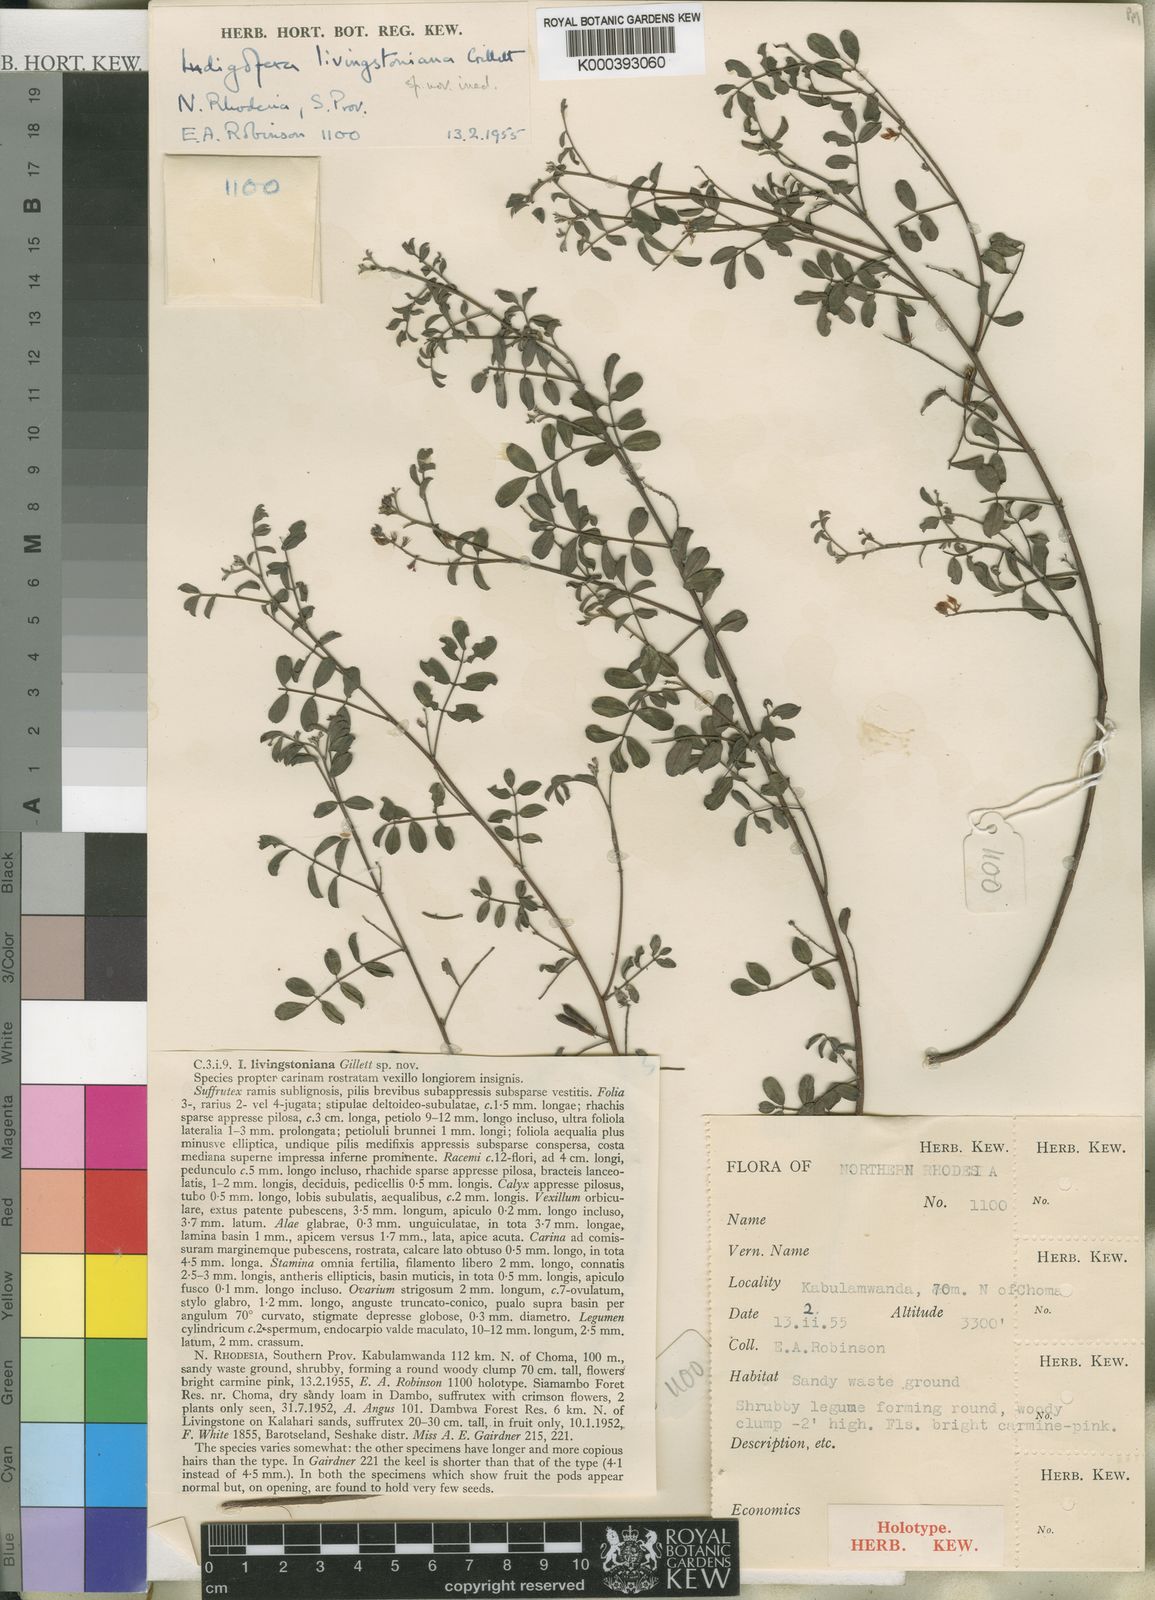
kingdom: Plantae
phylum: Tracheophyta
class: Magnoliopsida
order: Fabales
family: Fabaceae
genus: Indigofera
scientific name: Indigofera livingstoniana
